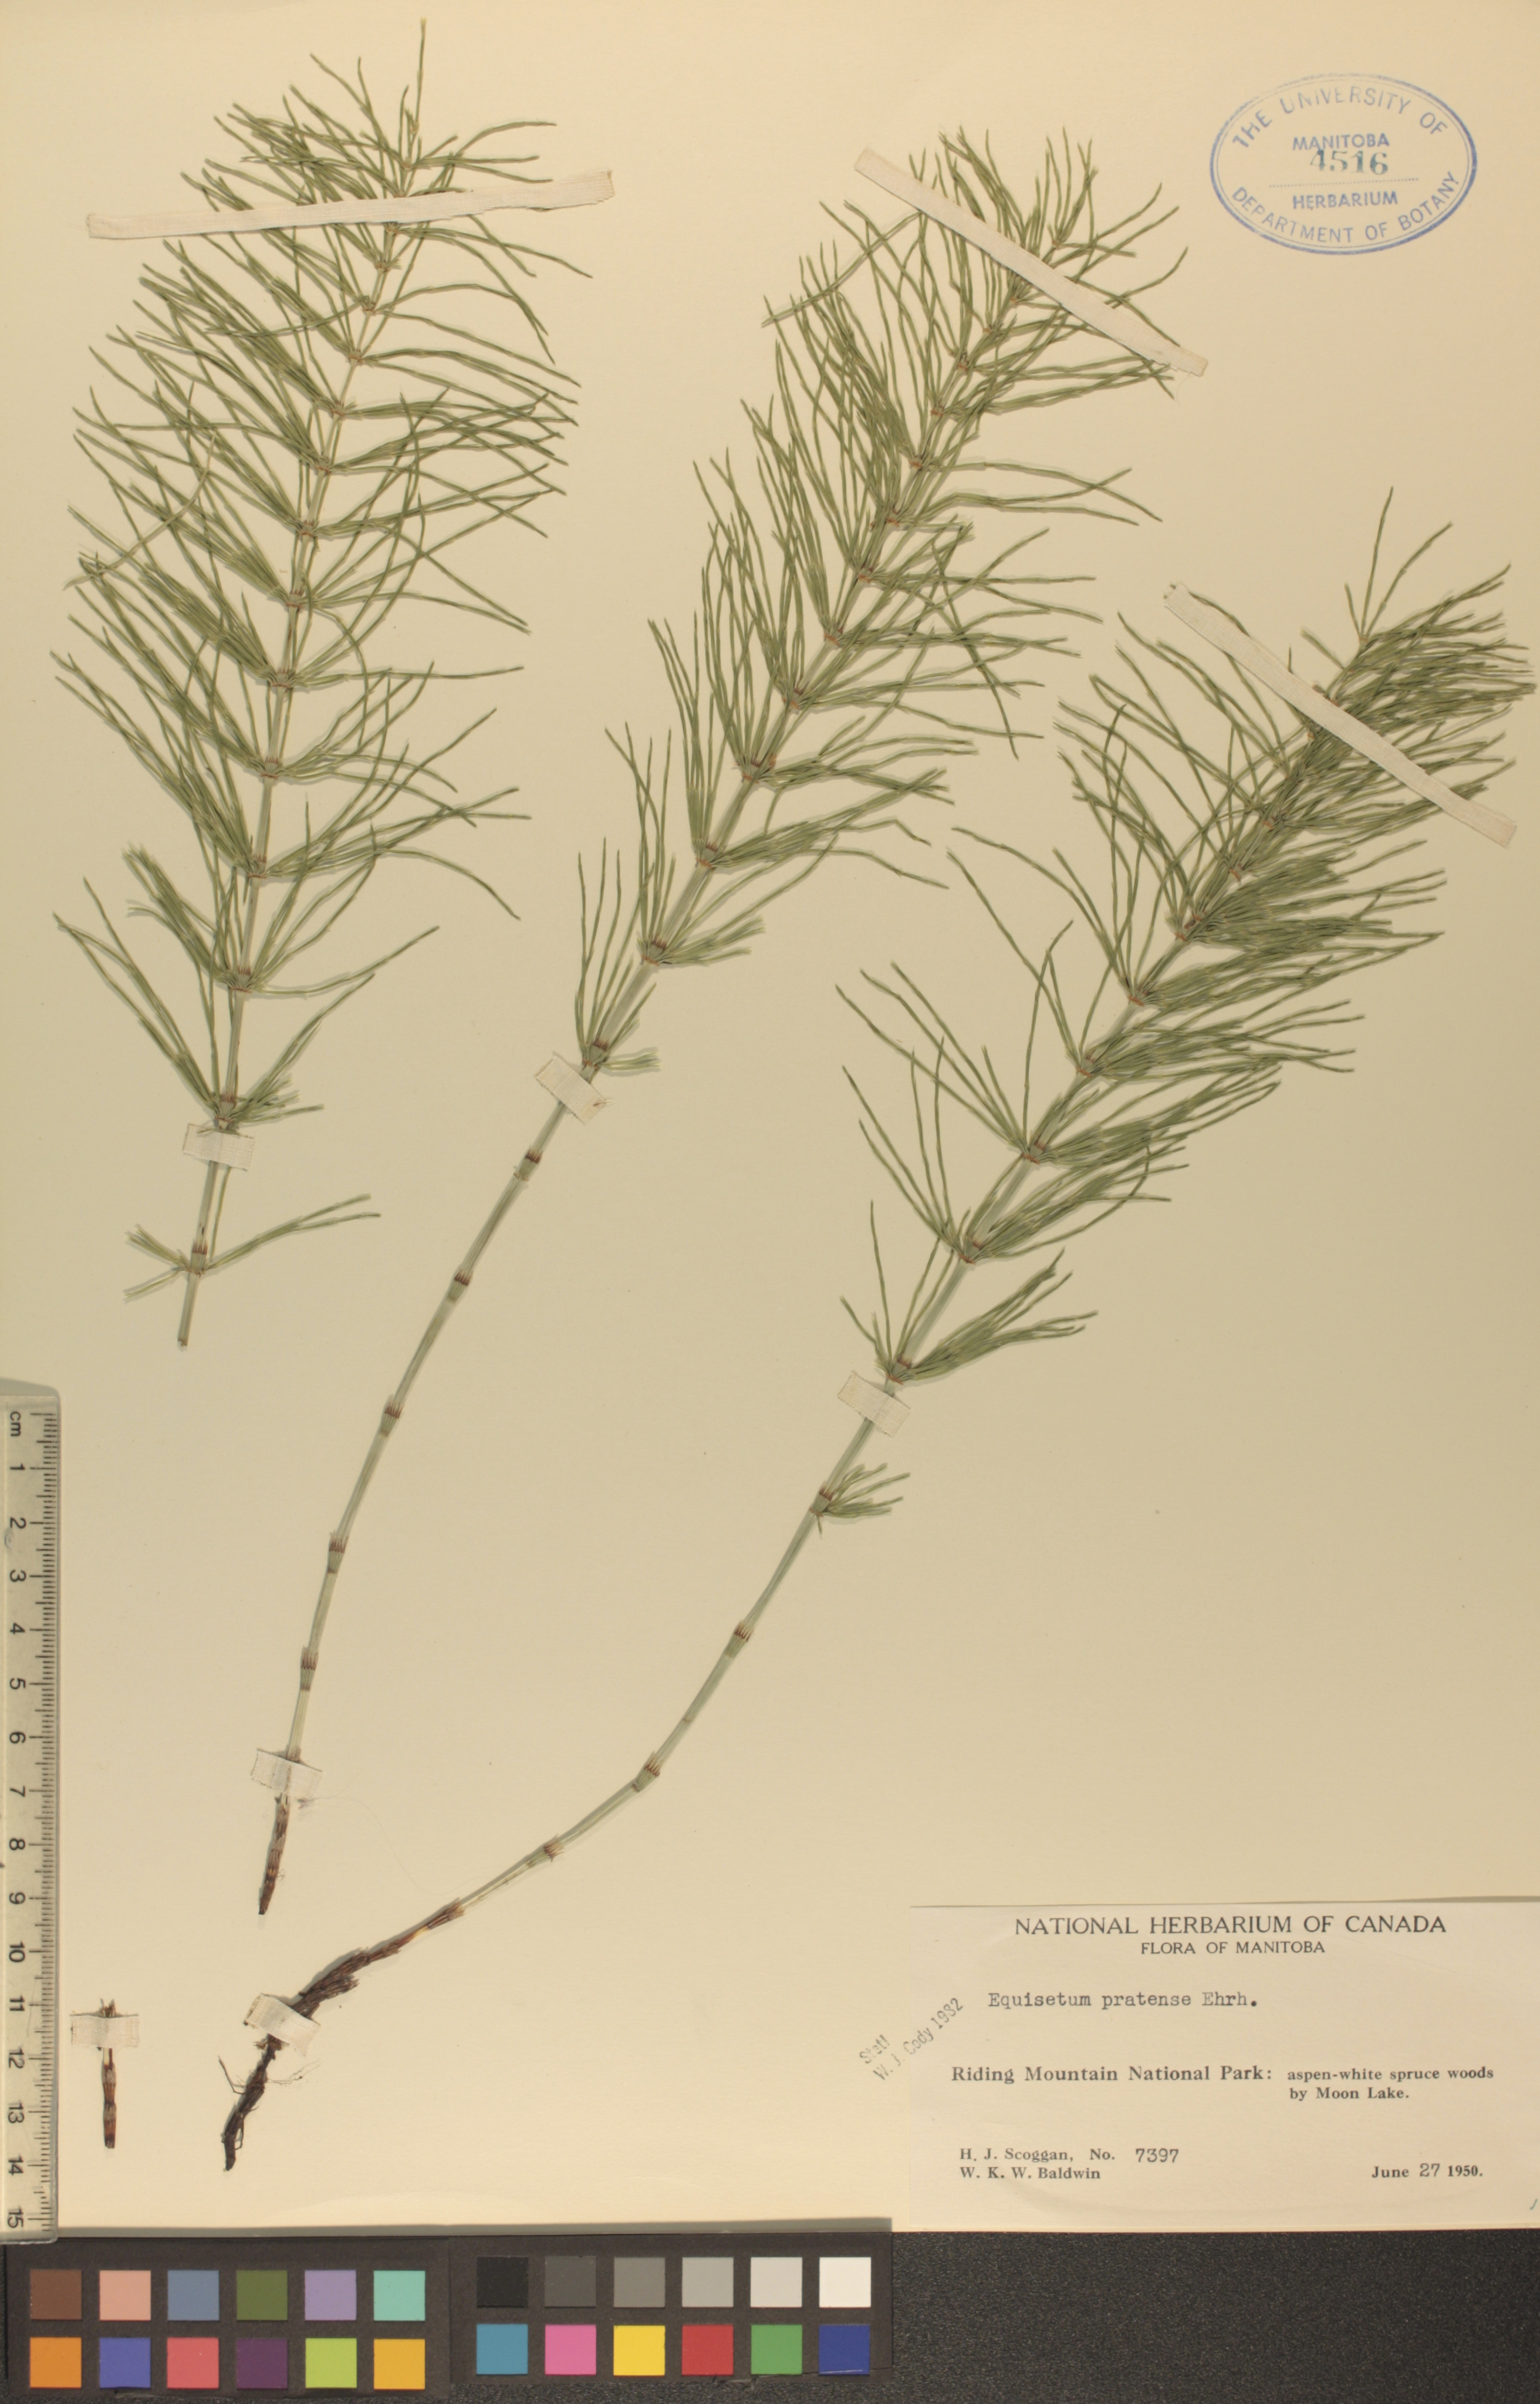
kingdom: Plantae
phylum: Tracheophyta
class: Polypodiopsida
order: Equisetales
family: Equisetaceae
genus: Equisetum
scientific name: Equisetum pratense
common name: Meadow horsetail
